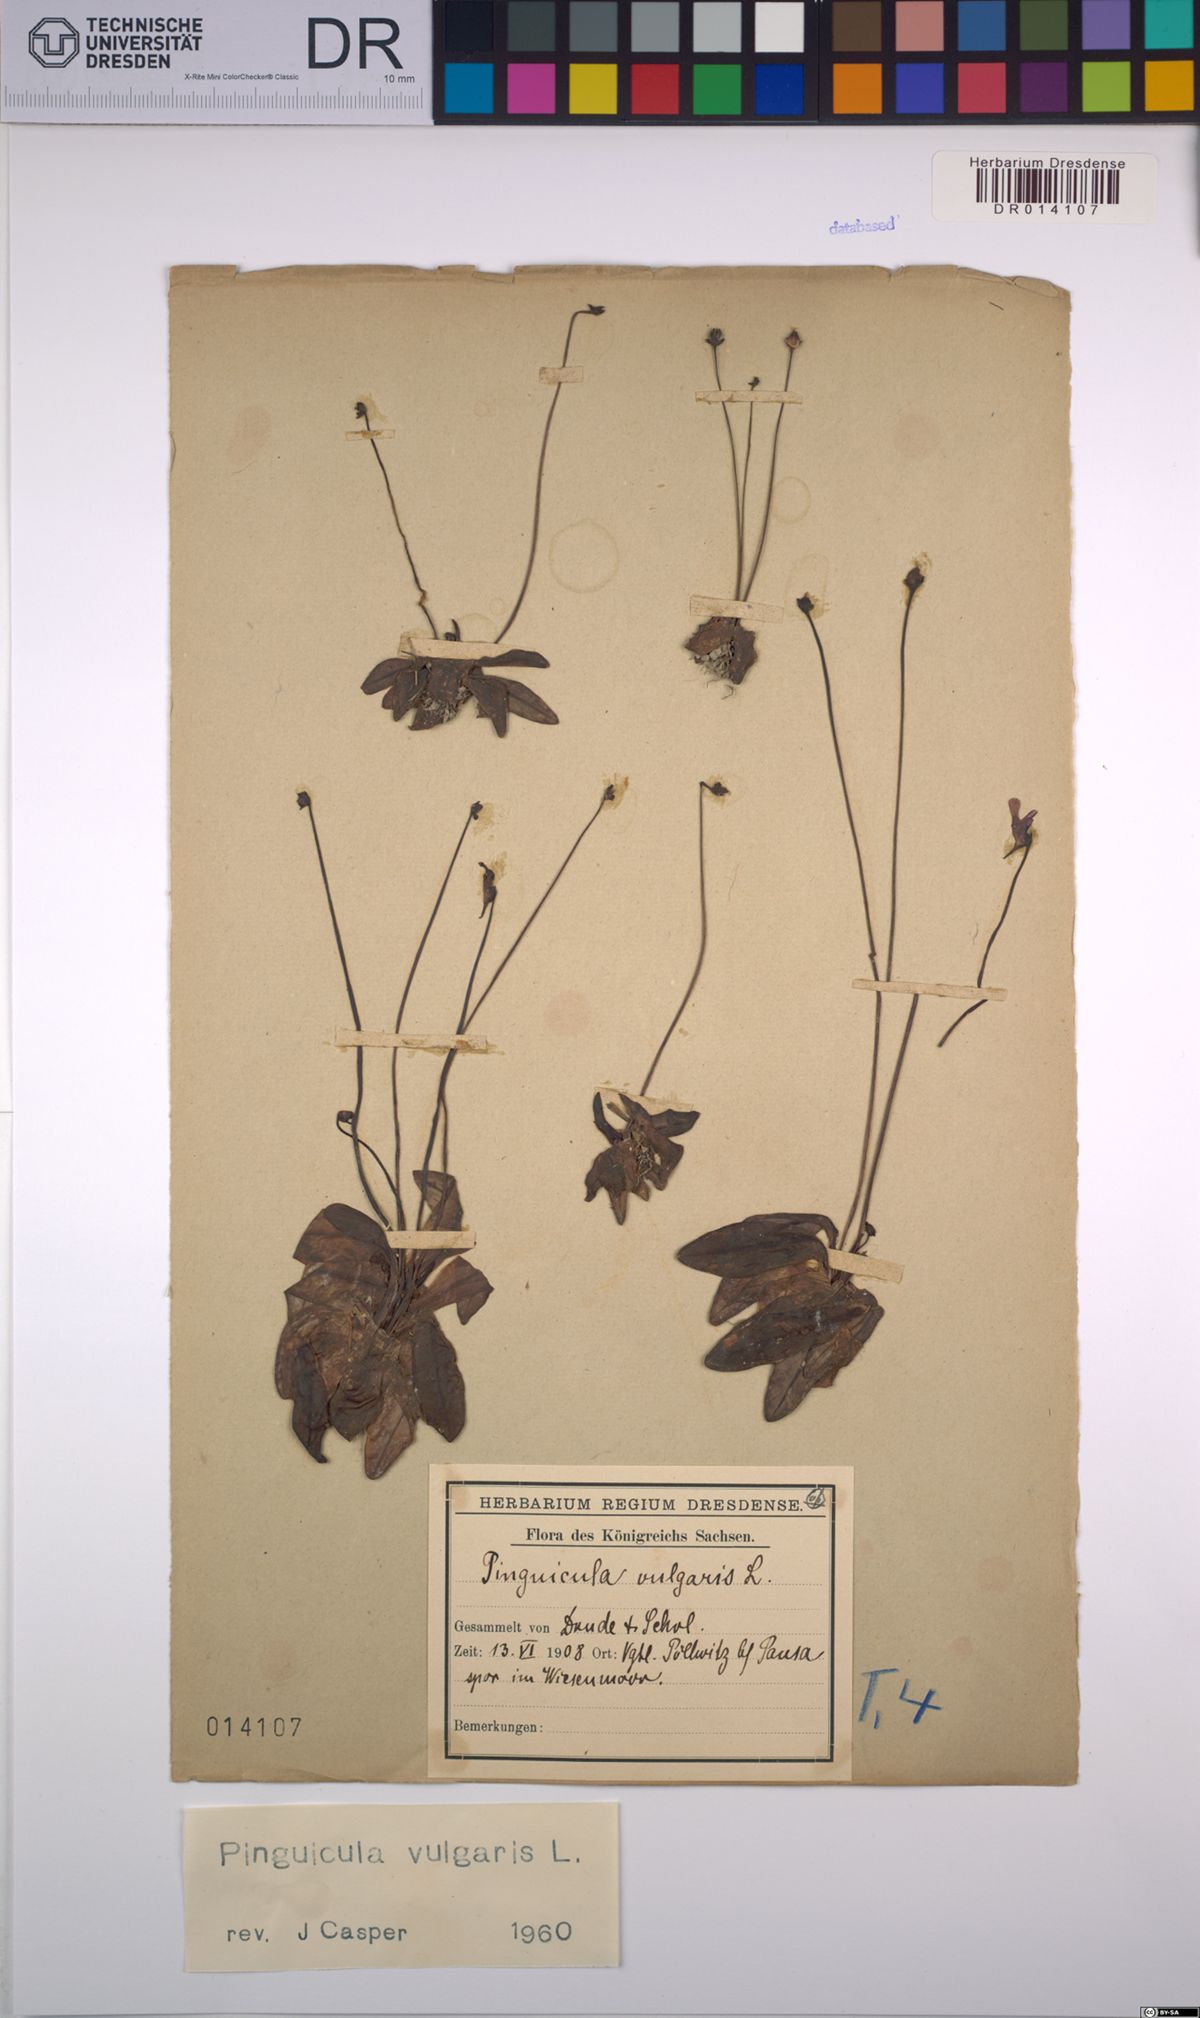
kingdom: Plantae
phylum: Tracheophyta
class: Magnoliopsida
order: Lamiales
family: Lentibulariaceae
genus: Pinguicula
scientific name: Pinguicula vulgaris
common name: Common butterwort
